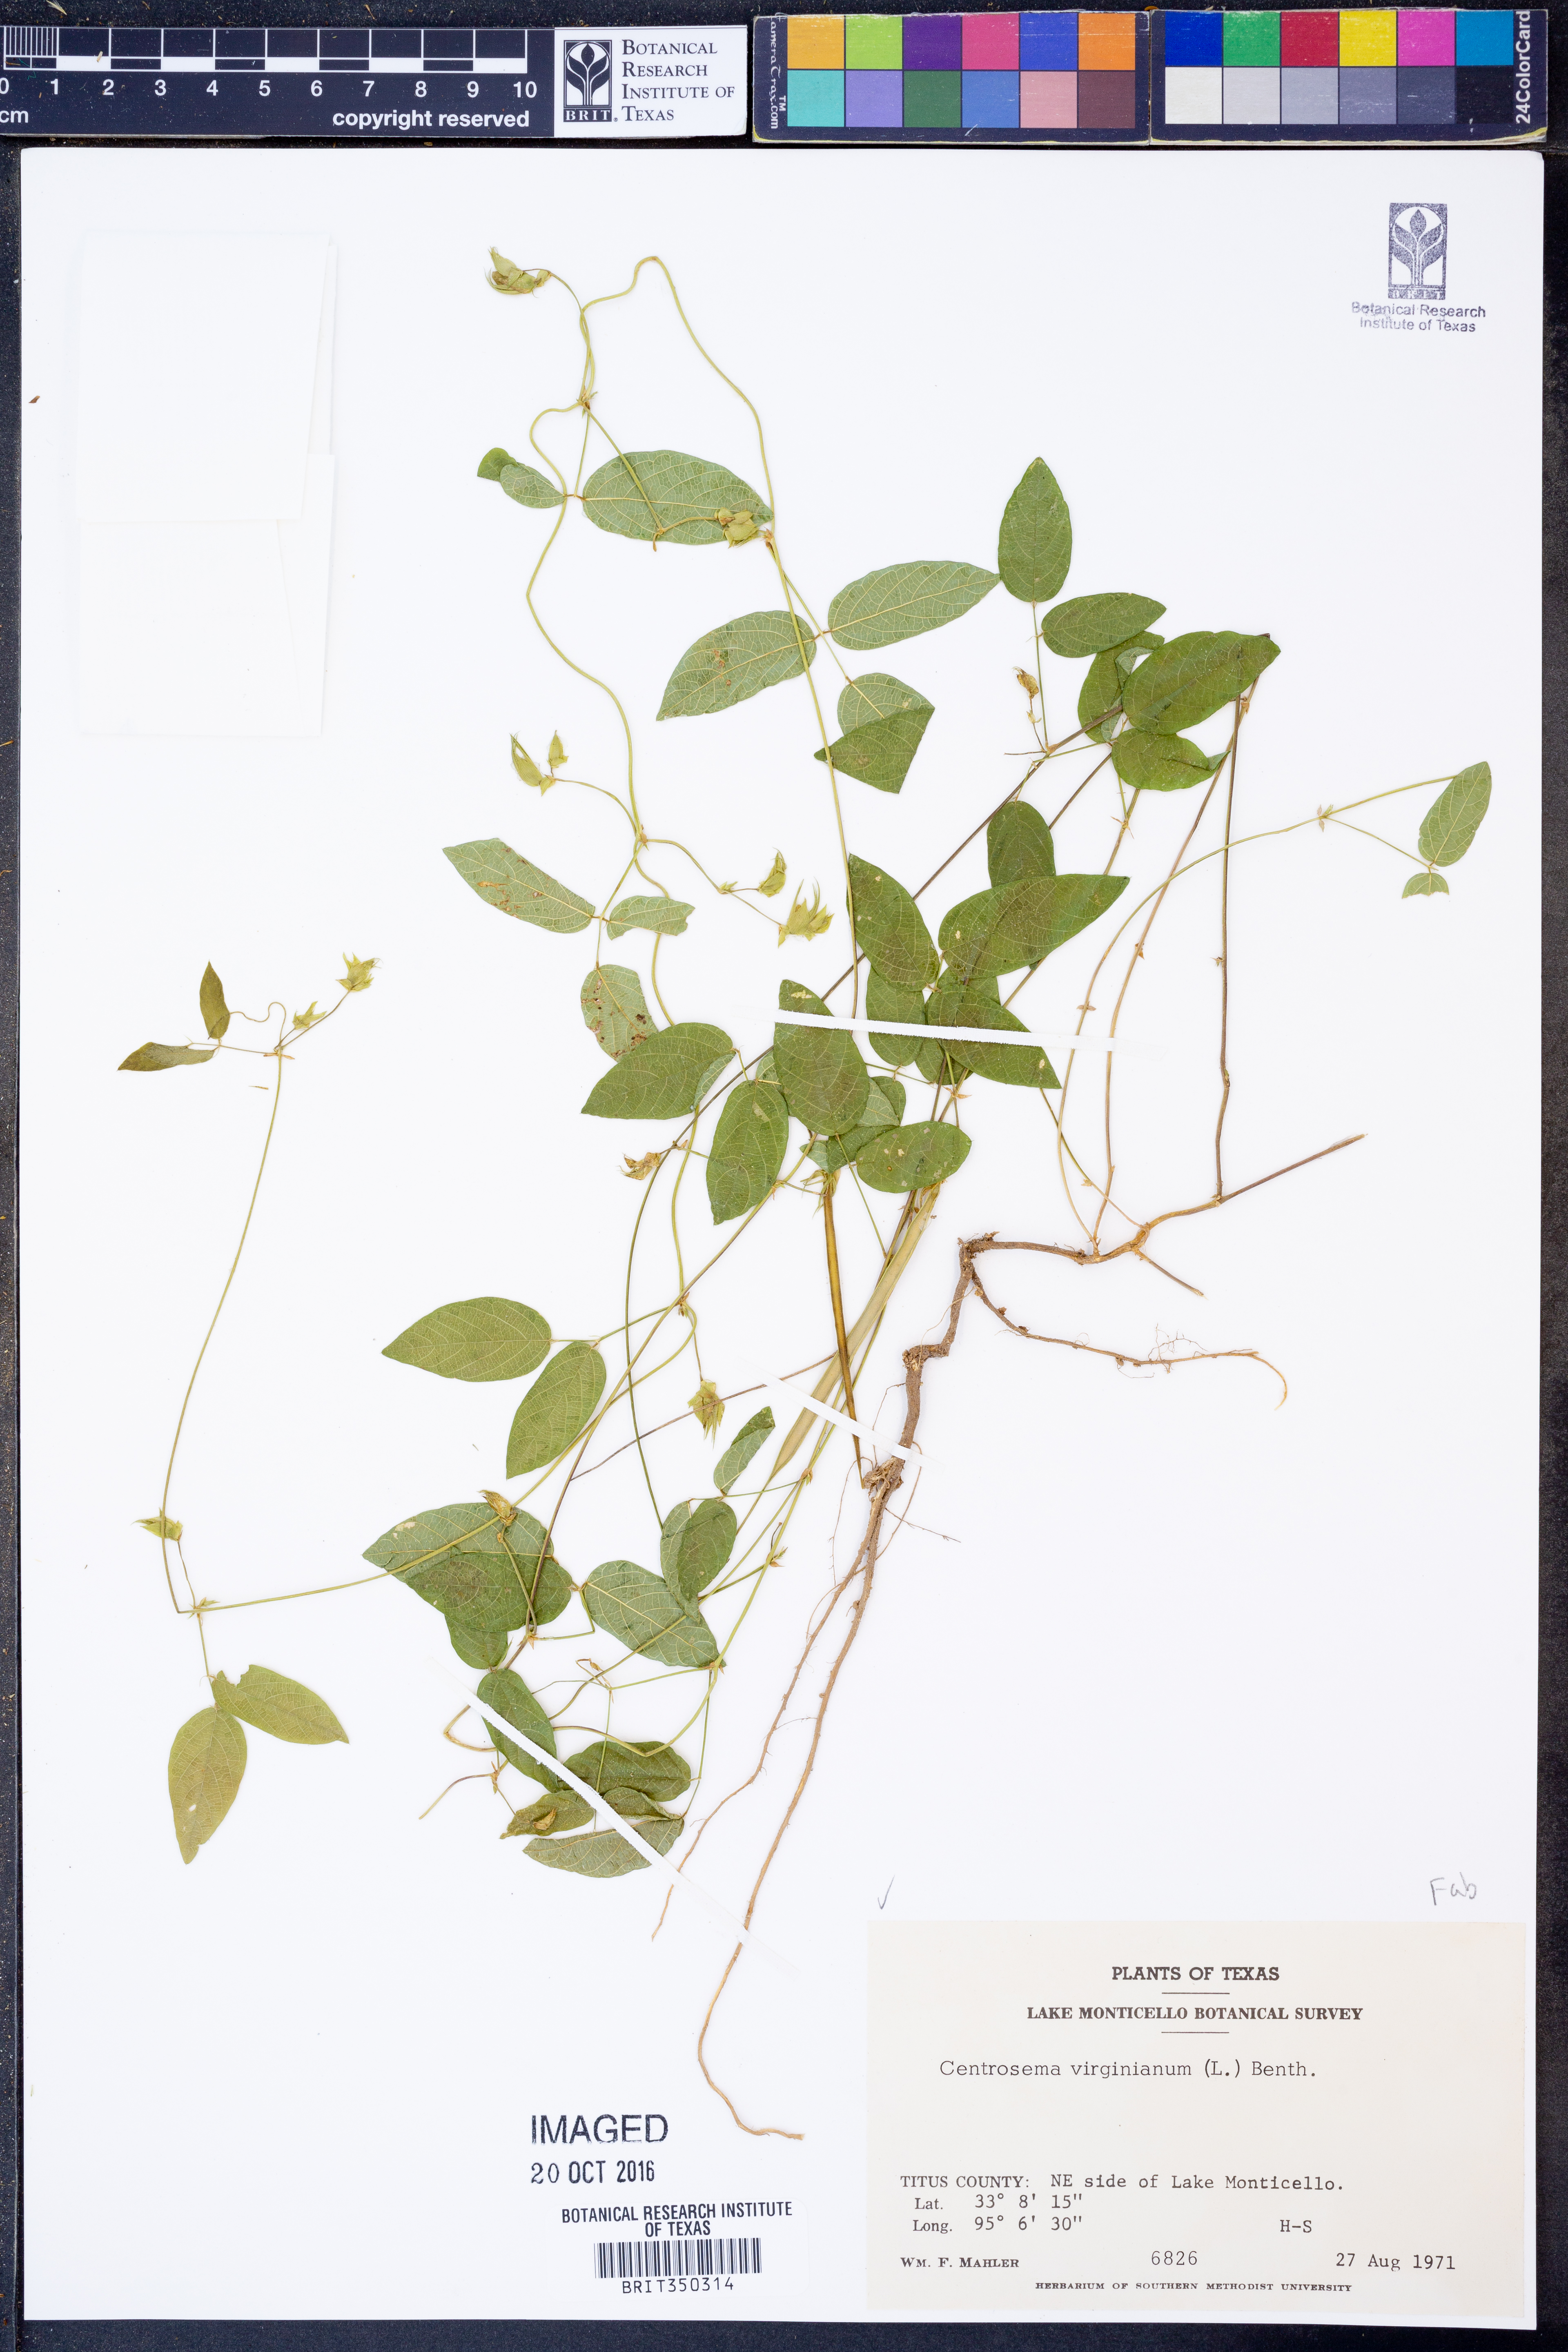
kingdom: Plantae
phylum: Tracheophyta
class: Magnoliopsida
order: Fabales
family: Fabaceae
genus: Centrosema
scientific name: Centrosema virginianum
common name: Butterfly-pea
